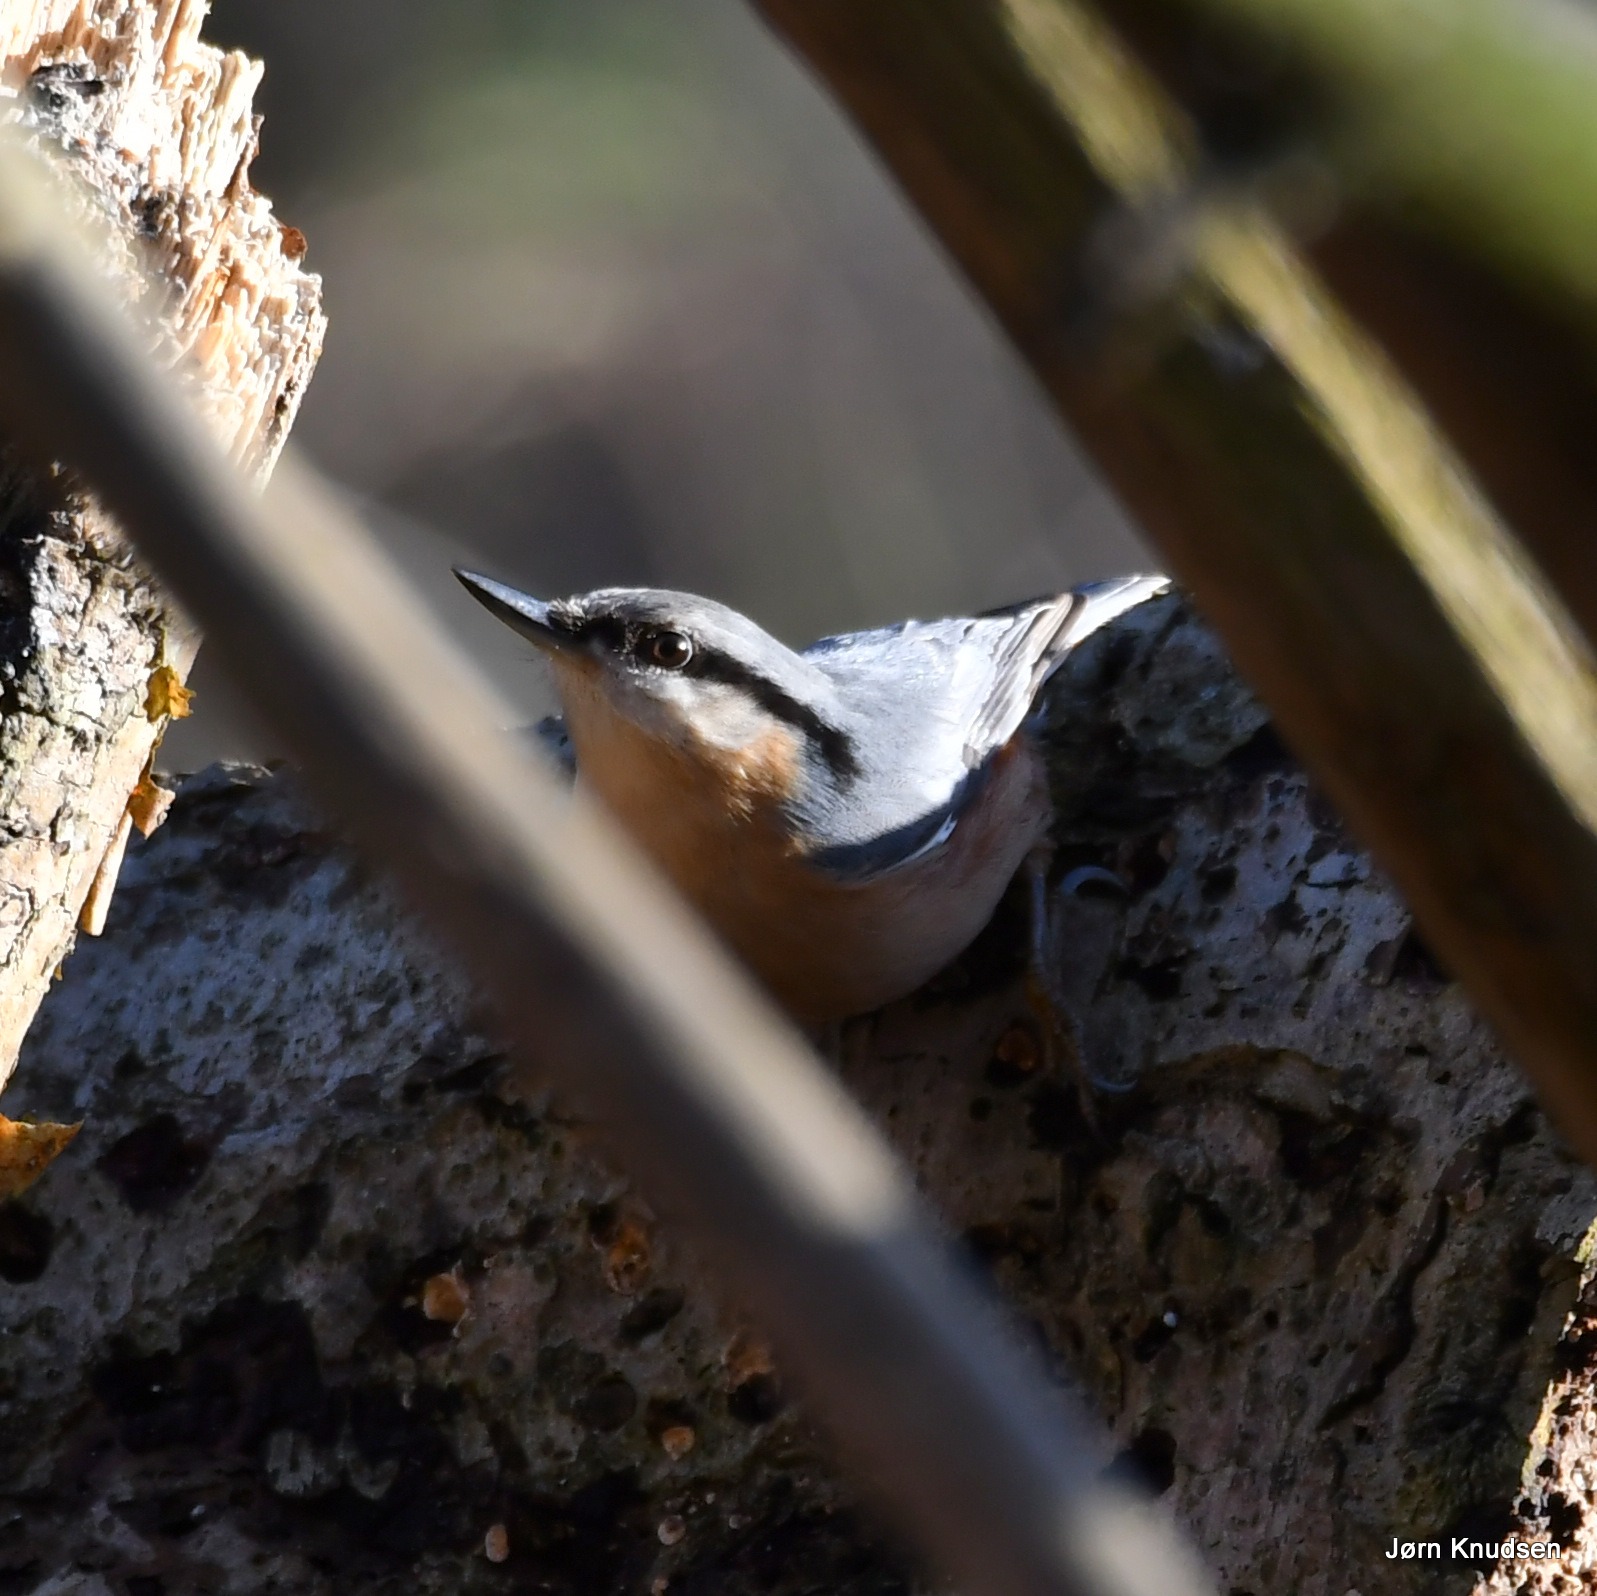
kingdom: Animalia
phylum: Chordata
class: Aves
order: Passeriformes
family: Sittidae
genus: Sitta
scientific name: Sitta europaea
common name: Spætmejse
